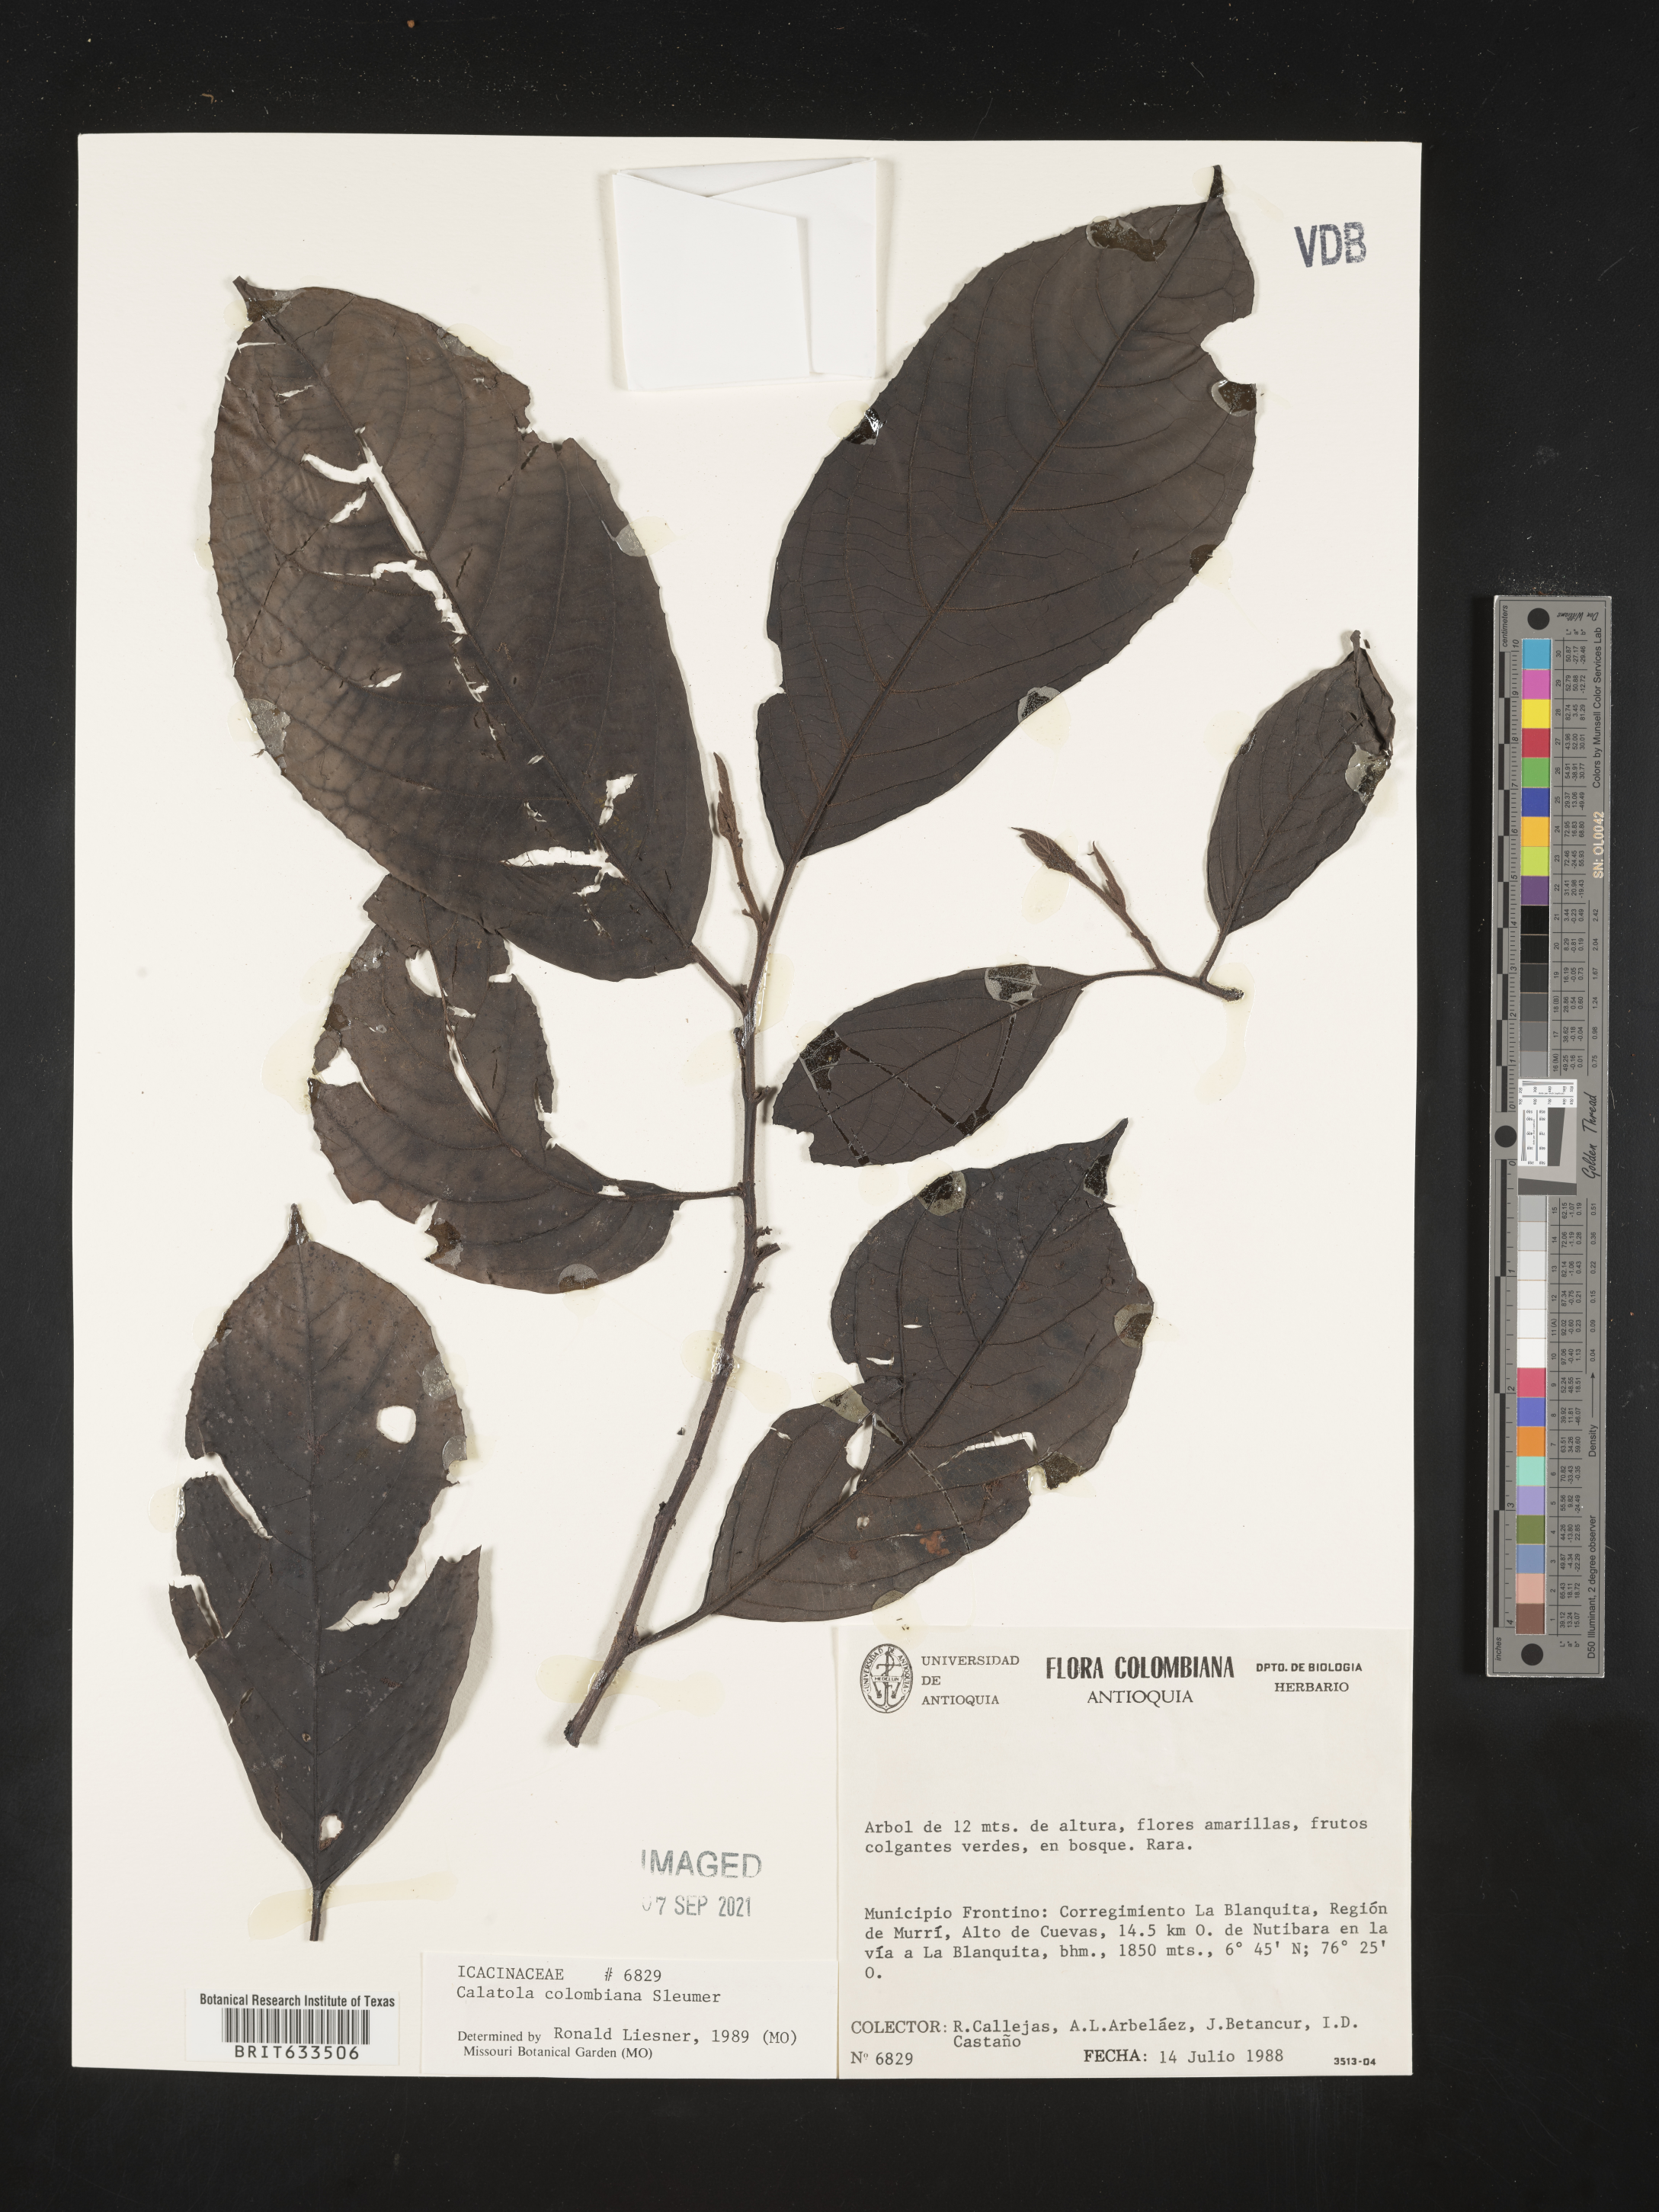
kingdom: Plantae
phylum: Tracheophyta
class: Magnoliopsida
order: Icacinales
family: Icacinaceae
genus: Calatola
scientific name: Calatola
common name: Calatola
